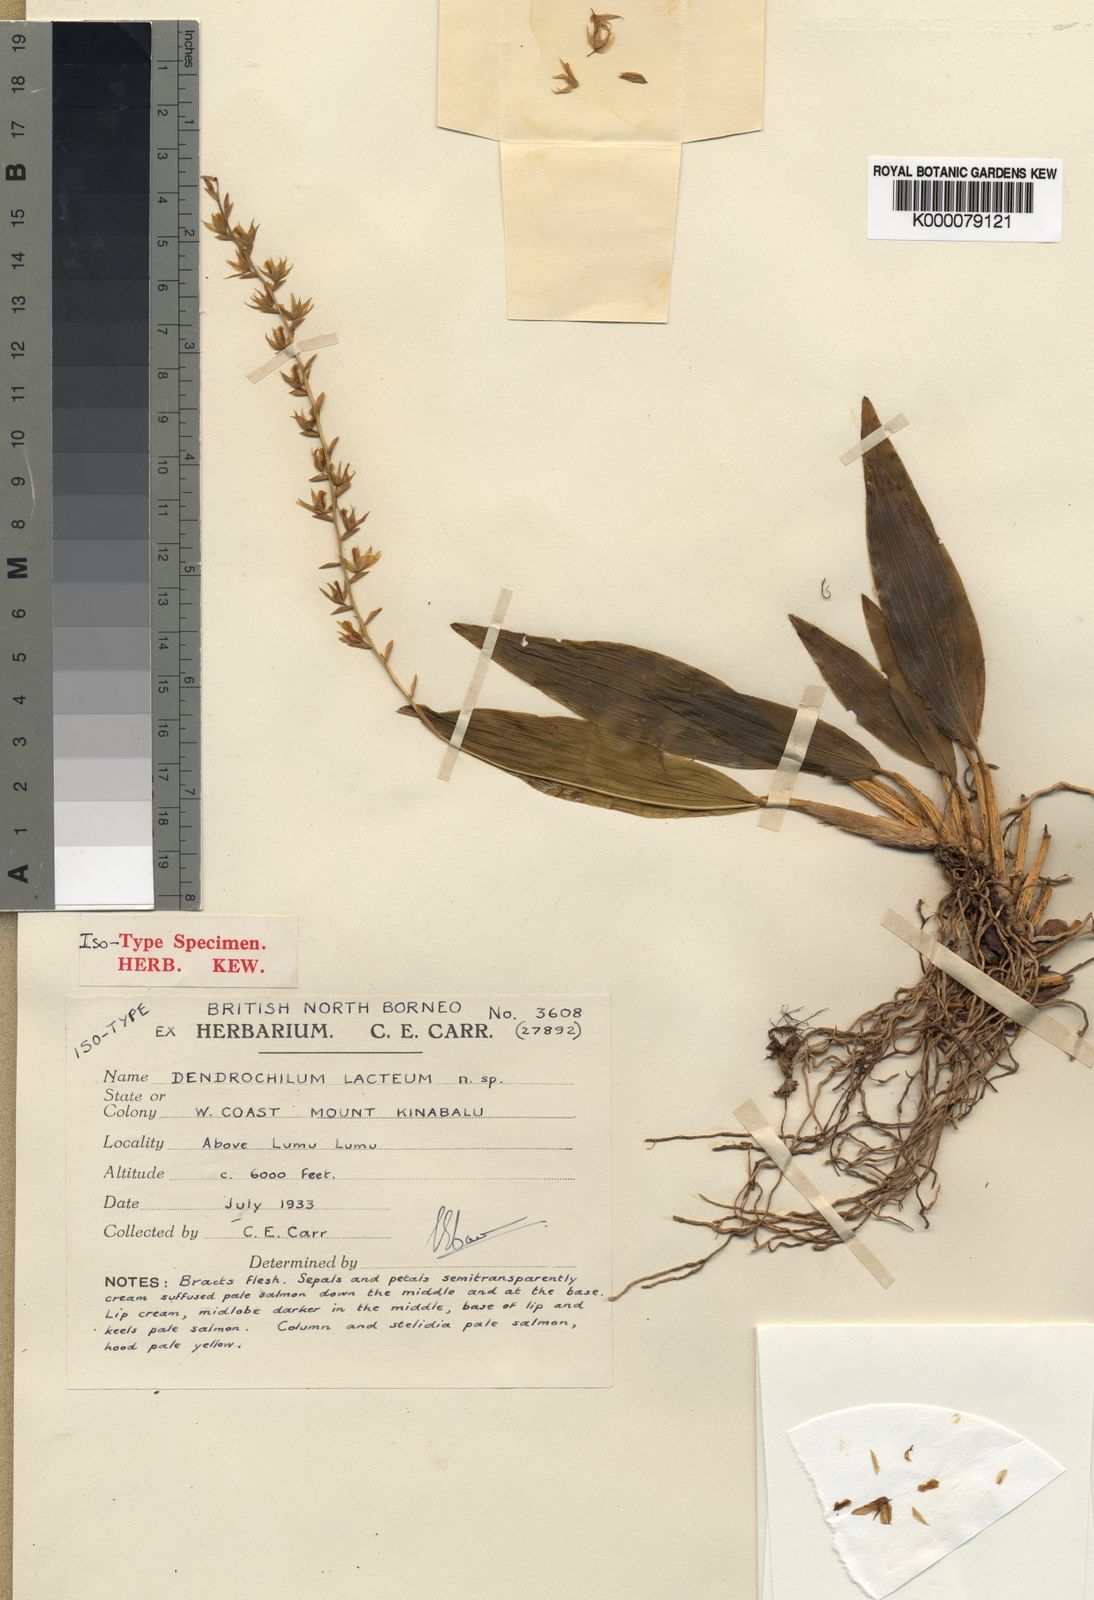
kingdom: Plantae
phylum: Tracheophyta
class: Liliopsida
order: Asparagales
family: Orchidaceae
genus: Coelogyne
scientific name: Coelogyne lacteola
